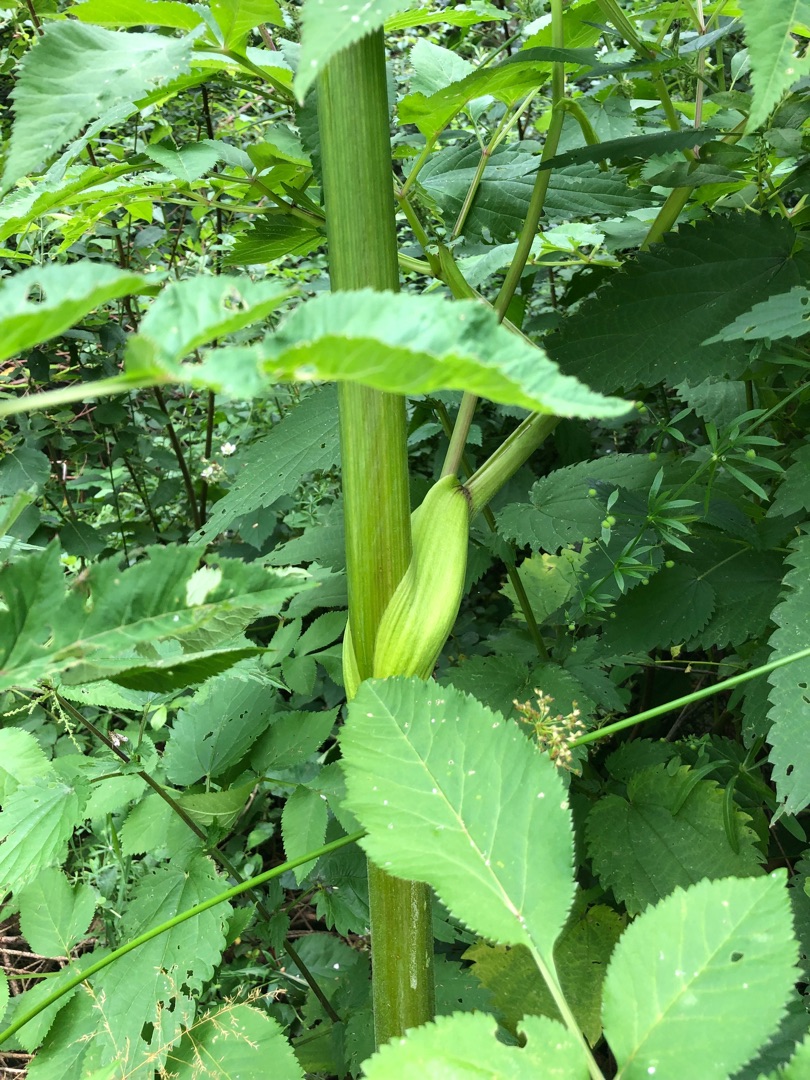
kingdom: Plantae
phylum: Tracheophyta
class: Magnoliopsida
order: Apiales
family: Apiaceae
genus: Angelica
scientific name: Angelica sylvestris
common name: Angelik
